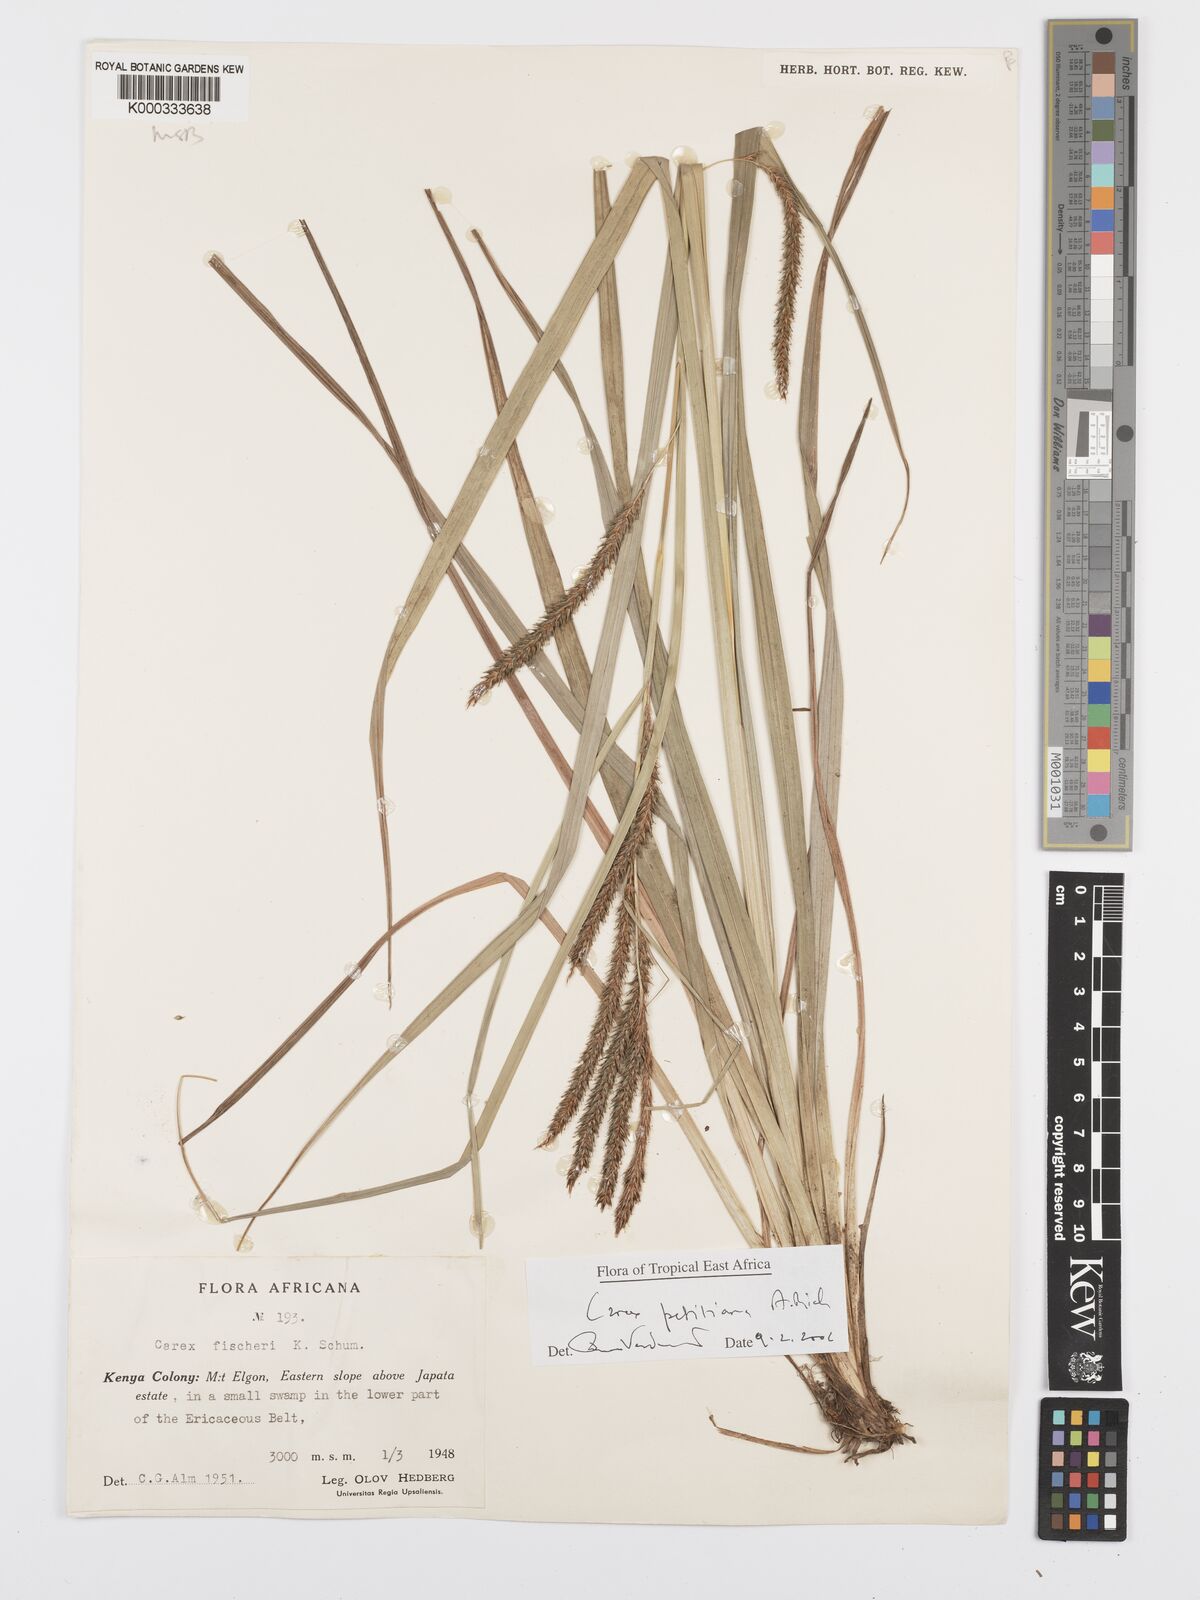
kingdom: Plantae
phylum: Tracheophyta
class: Liliopsida
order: Poales
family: Cyperaceae
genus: Carex
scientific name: Carex petitiana
